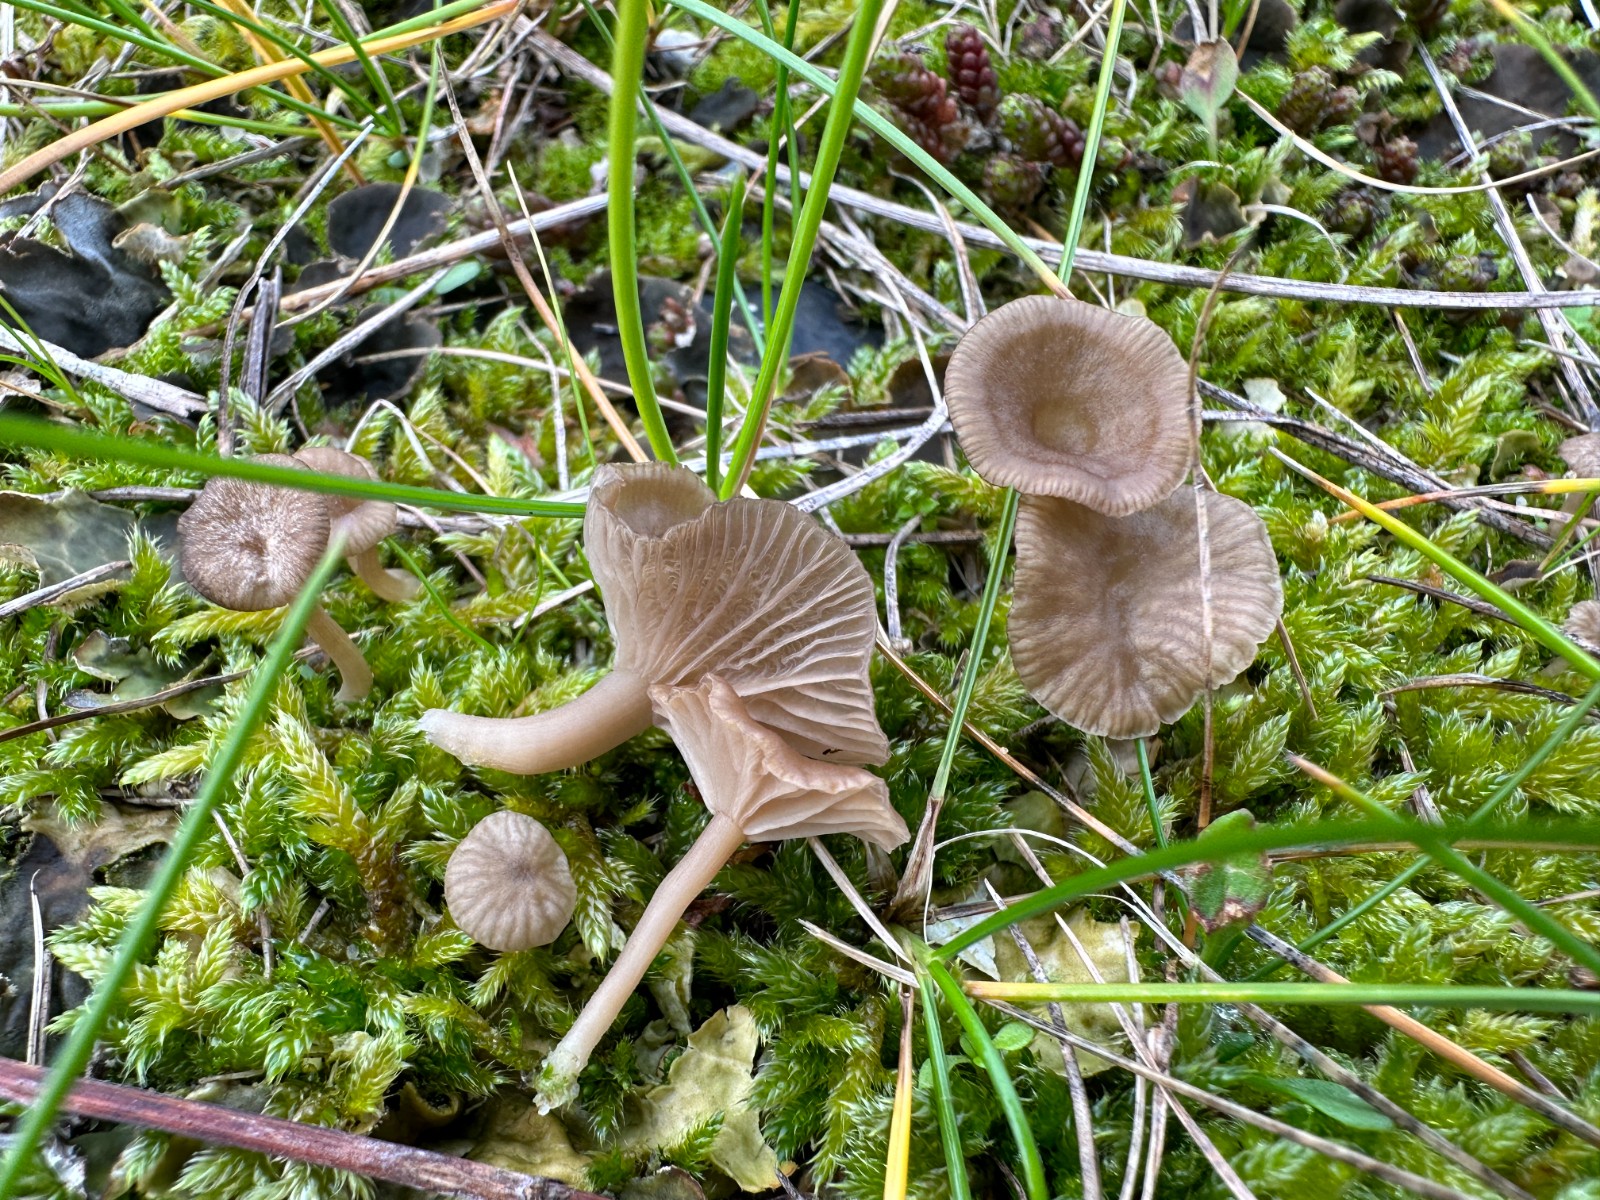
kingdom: Fungi
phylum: Basidiomycota
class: Agaricomycetes
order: Agaricales
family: Hygrophoraceae
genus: Arrhenia
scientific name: Arrhenia peltigerina
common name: skjoldlav-fontænehat
